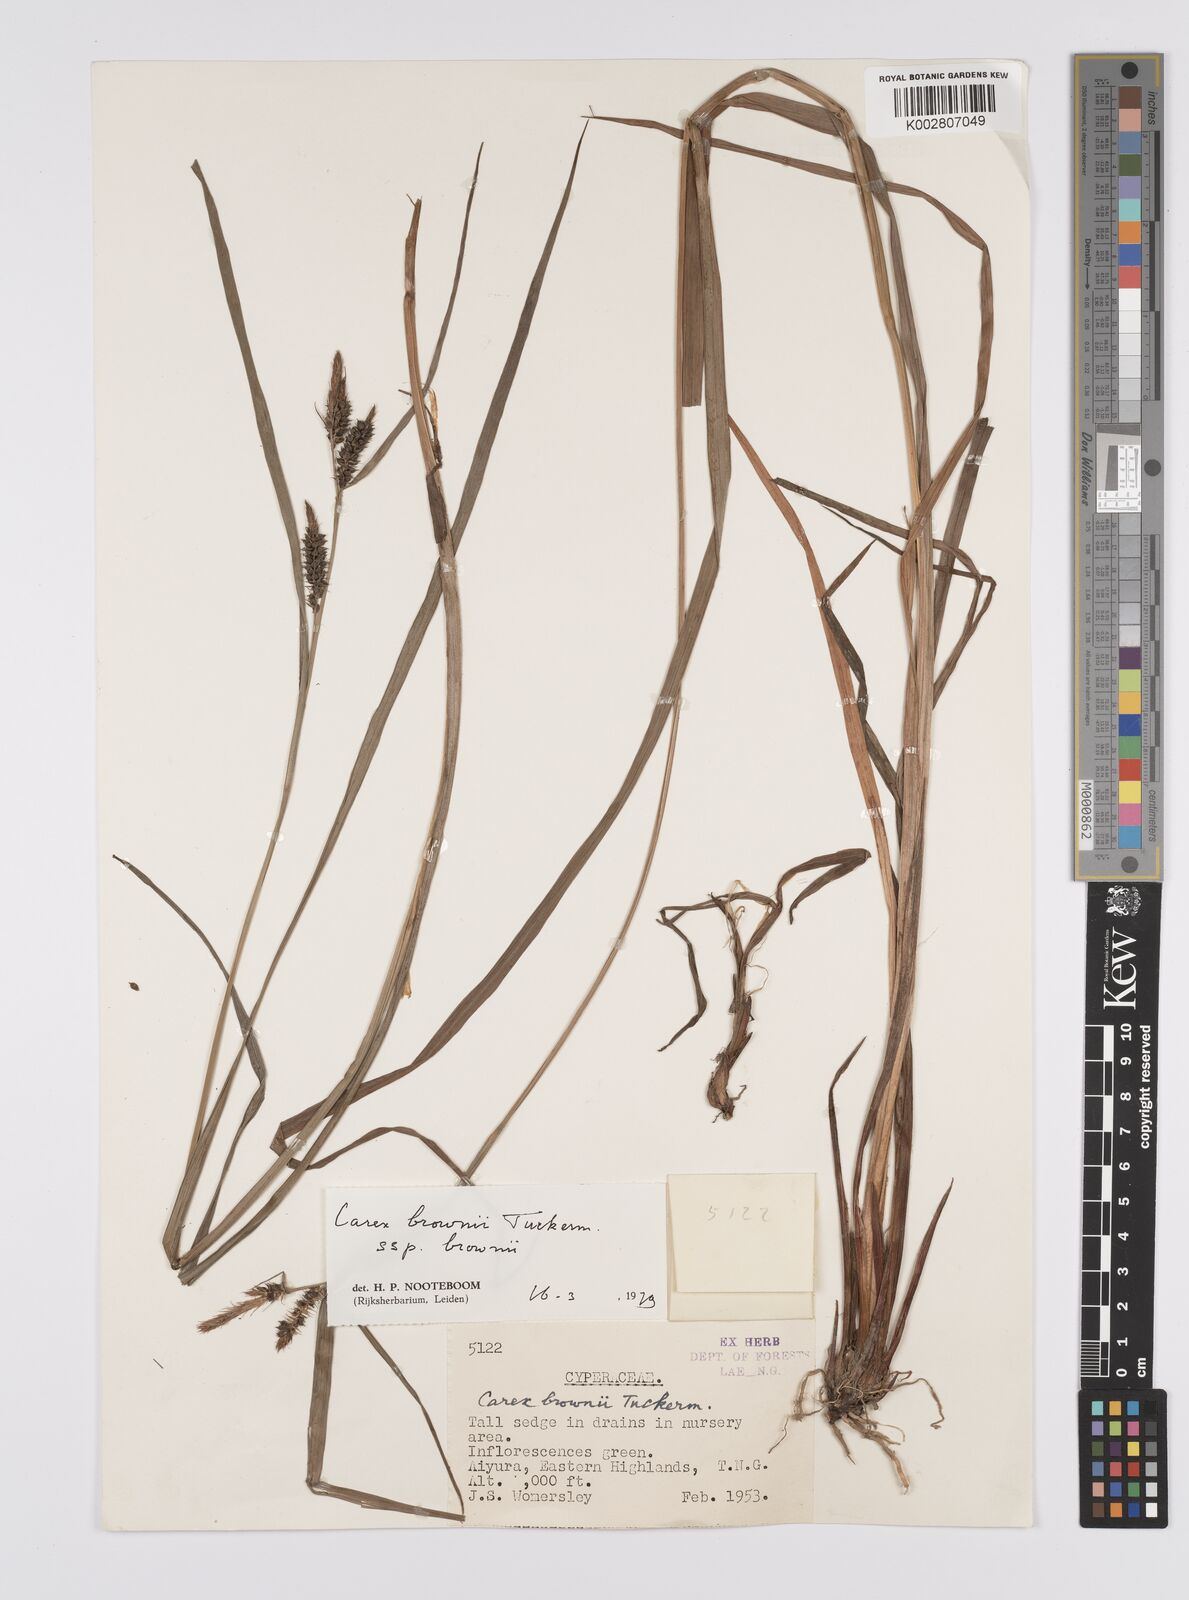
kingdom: Plantae
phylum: Tracheophyta
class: Liliopsida
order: Poales
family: Cyperaceae
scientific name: Cyperaceae
